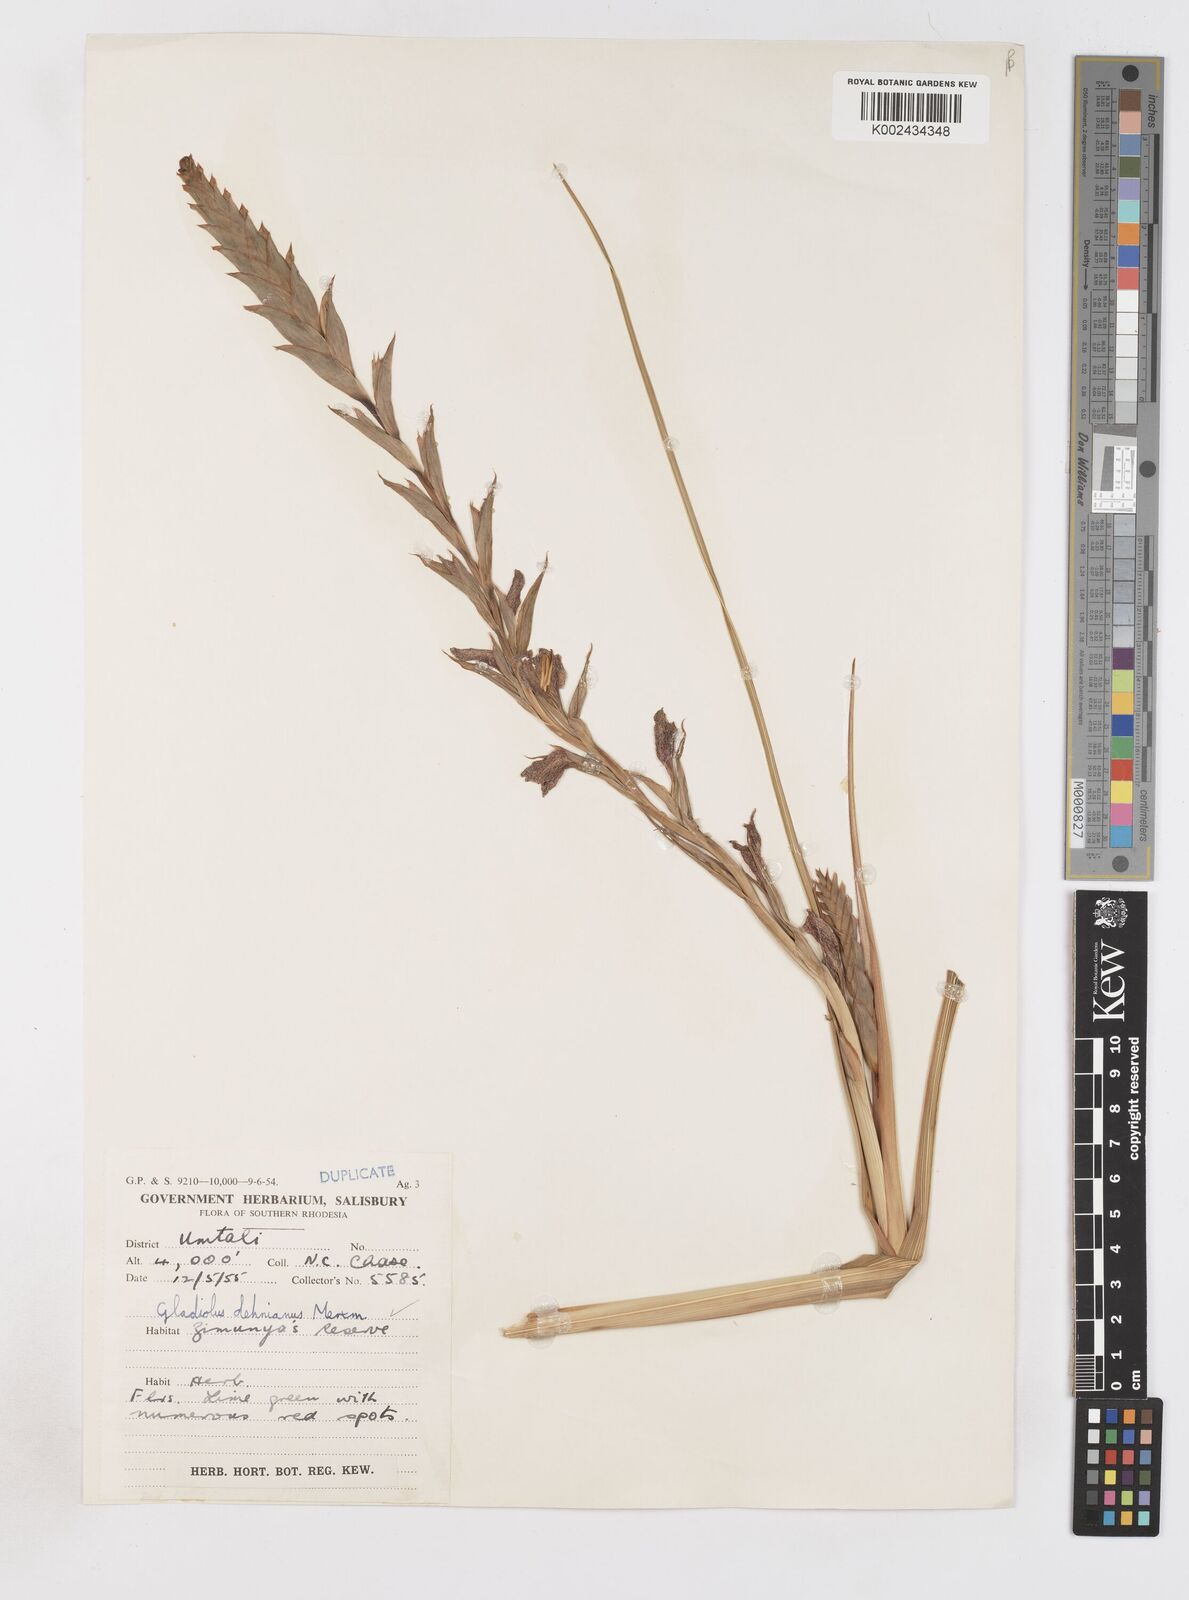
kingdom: Plantae
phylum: Tracheophyta
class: Liliopsida
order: Asparagales
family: Iridaceae
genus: Gladiolus
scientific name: Gladiolus sericeovillosus
